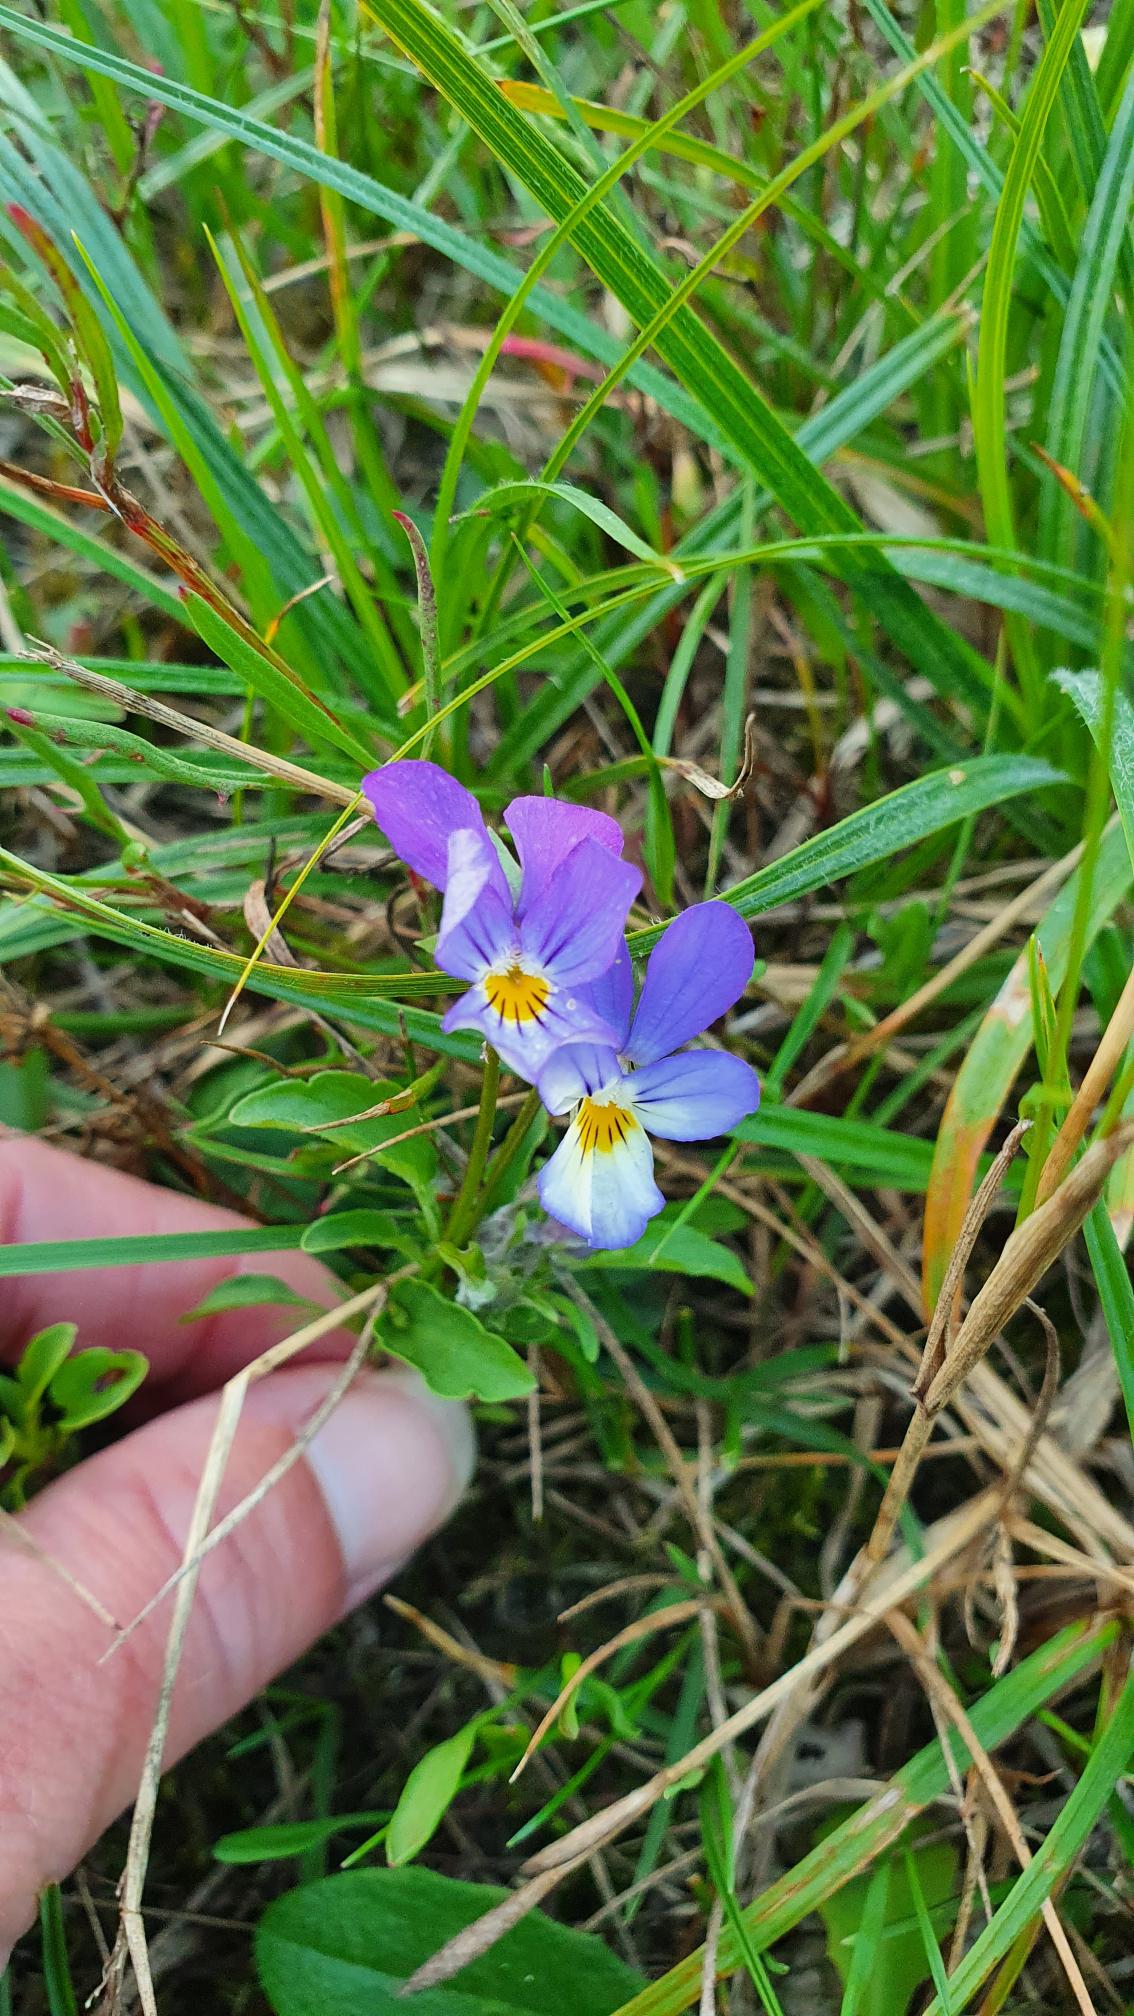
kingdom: Plantae
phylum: Tracheophyta
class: Magnoliopsida
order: Malpighiales
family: Violaceae
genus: Viola
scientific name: Viola tricolor
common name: Stedmoderblomst
